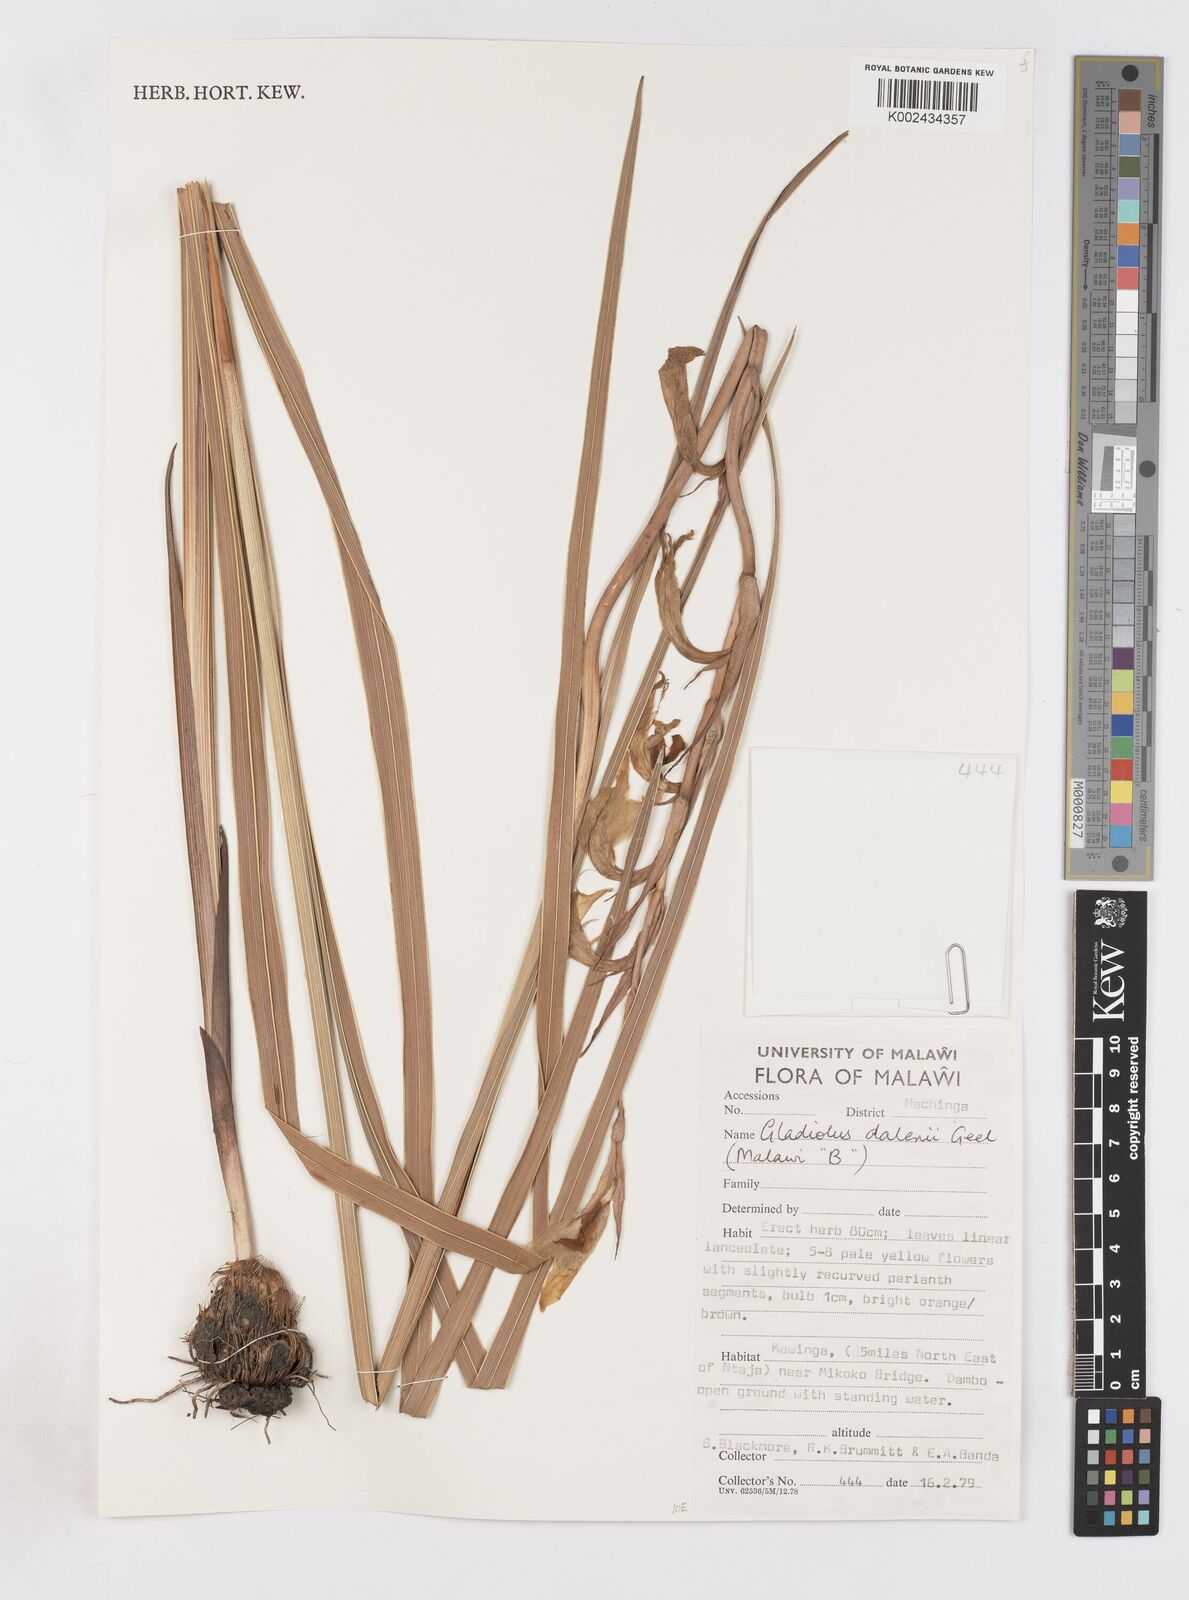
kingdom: Plantae
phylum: Tracheophyta
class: Liliopsida
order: Asparagales
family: Iridaceae
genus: Gladiolus
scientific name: Gladiolus dalenii
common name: Cornflag
